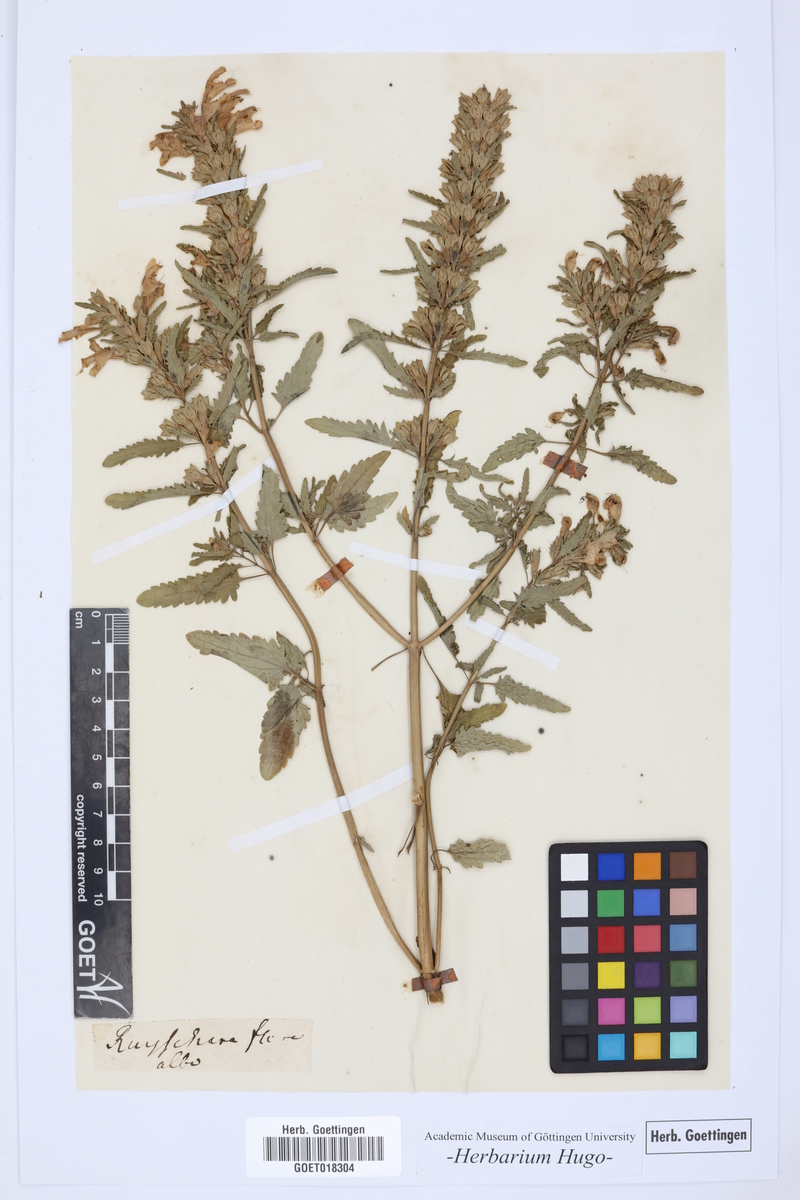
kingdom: Plantae
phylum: Tracheophyta
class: Magnoliopsida
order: Lamiales
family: Lamiaceae
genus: Dracocephalum
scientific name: Dracocephalum
